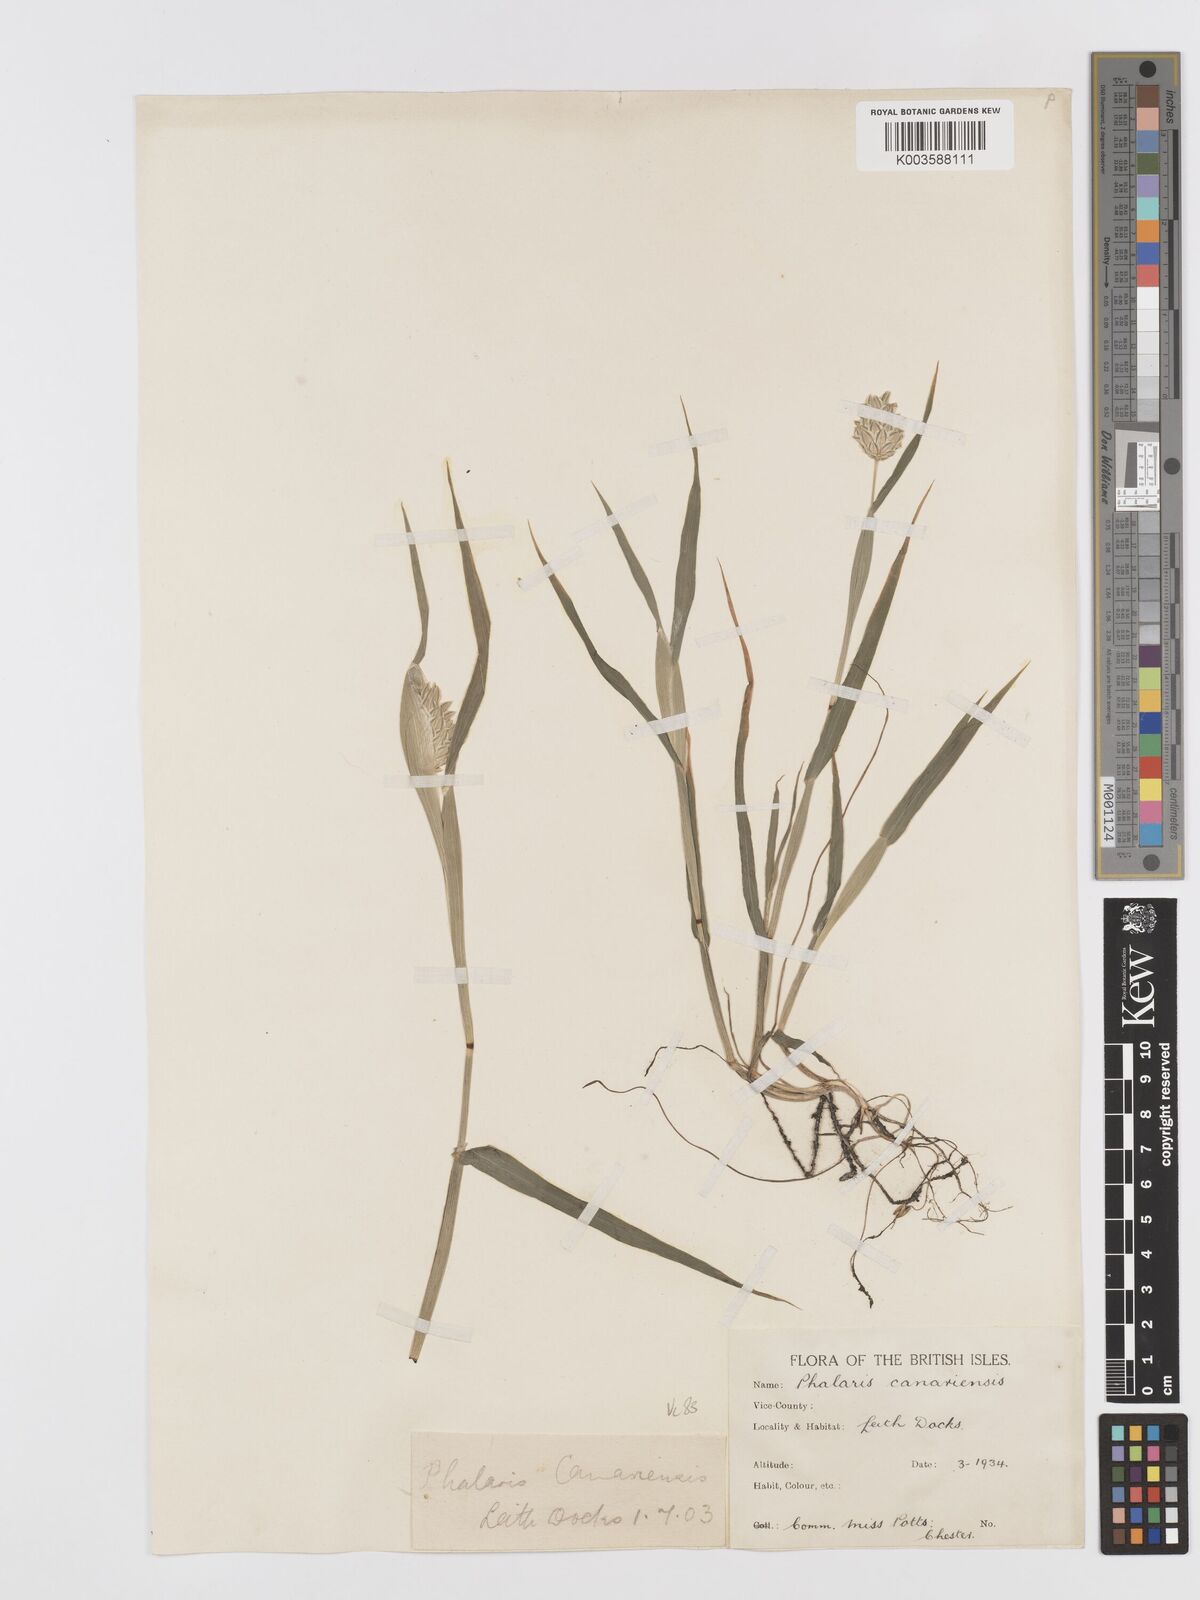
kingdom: Plantae
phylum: Tracheophyta
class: Liliopsida
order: Poales
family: Poaceae
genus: Phalaris
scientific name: Phalaris canariensis
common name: Annual canarygrass
